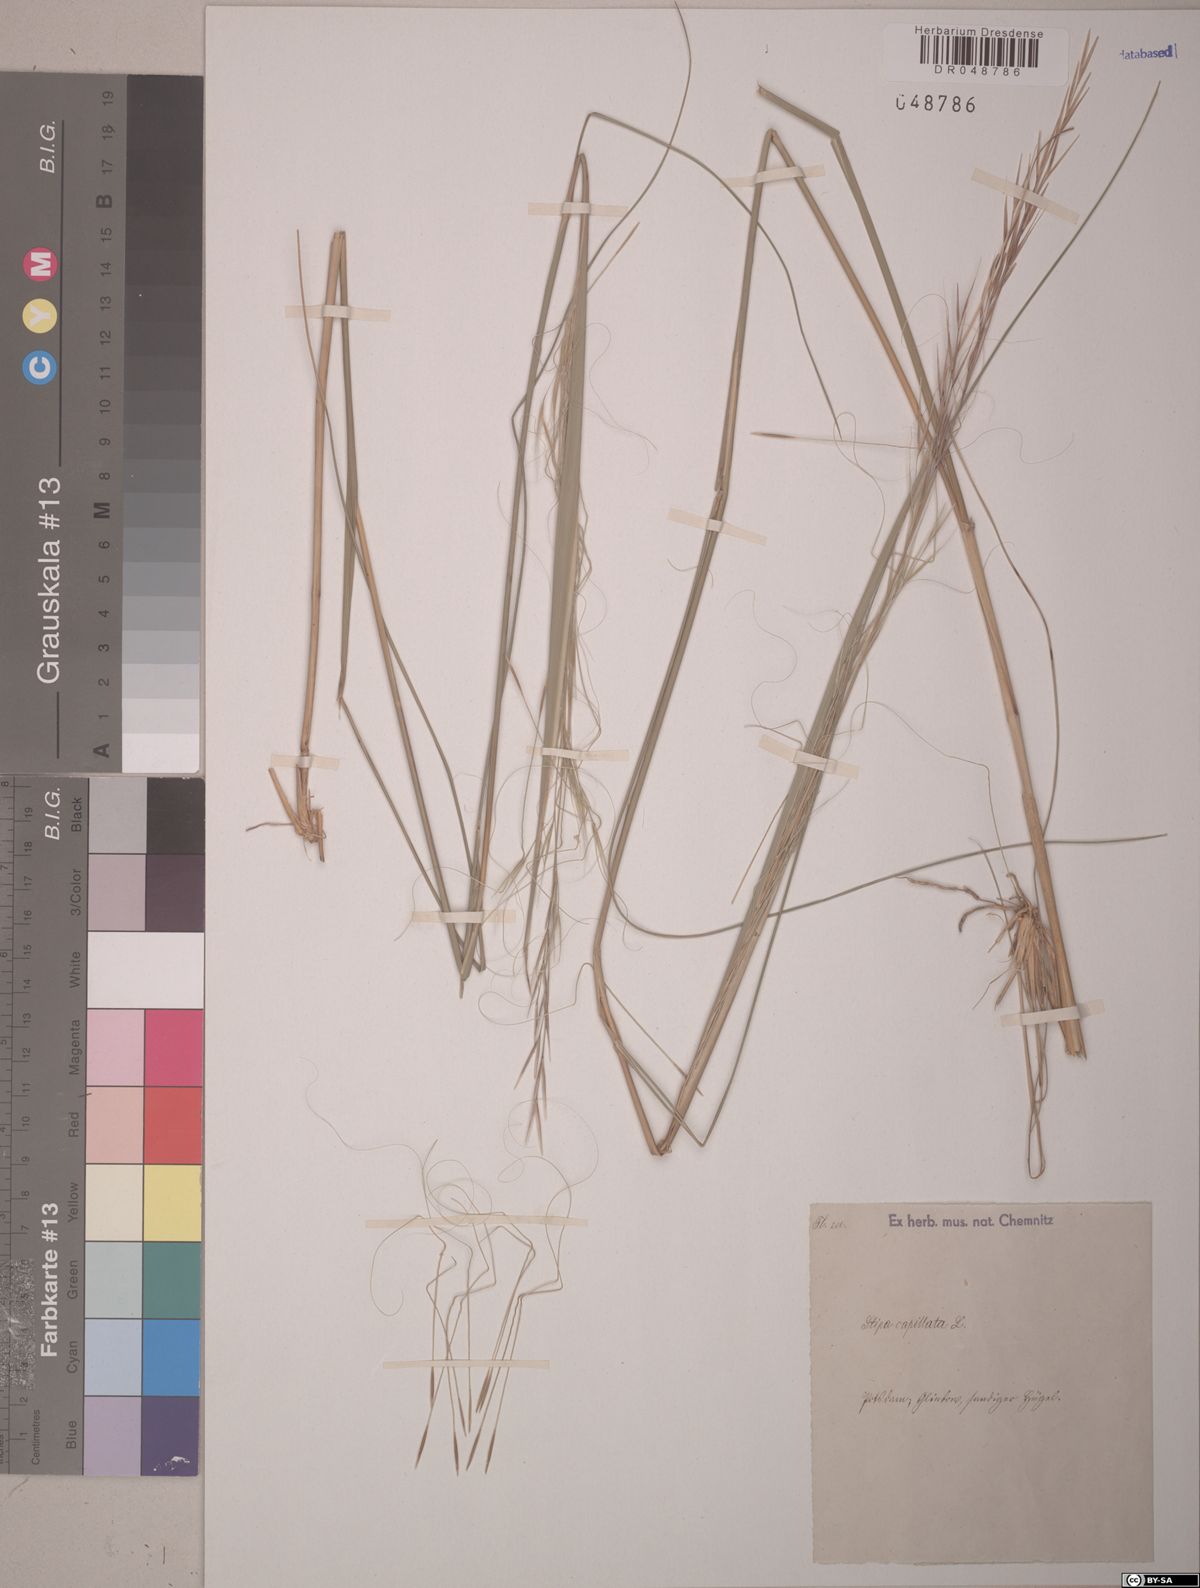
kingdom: Plantae
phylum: Tracheophyta
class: Liliopsida
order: Poales
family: Poaceae
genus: Stipa
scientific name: Stipa capillata
